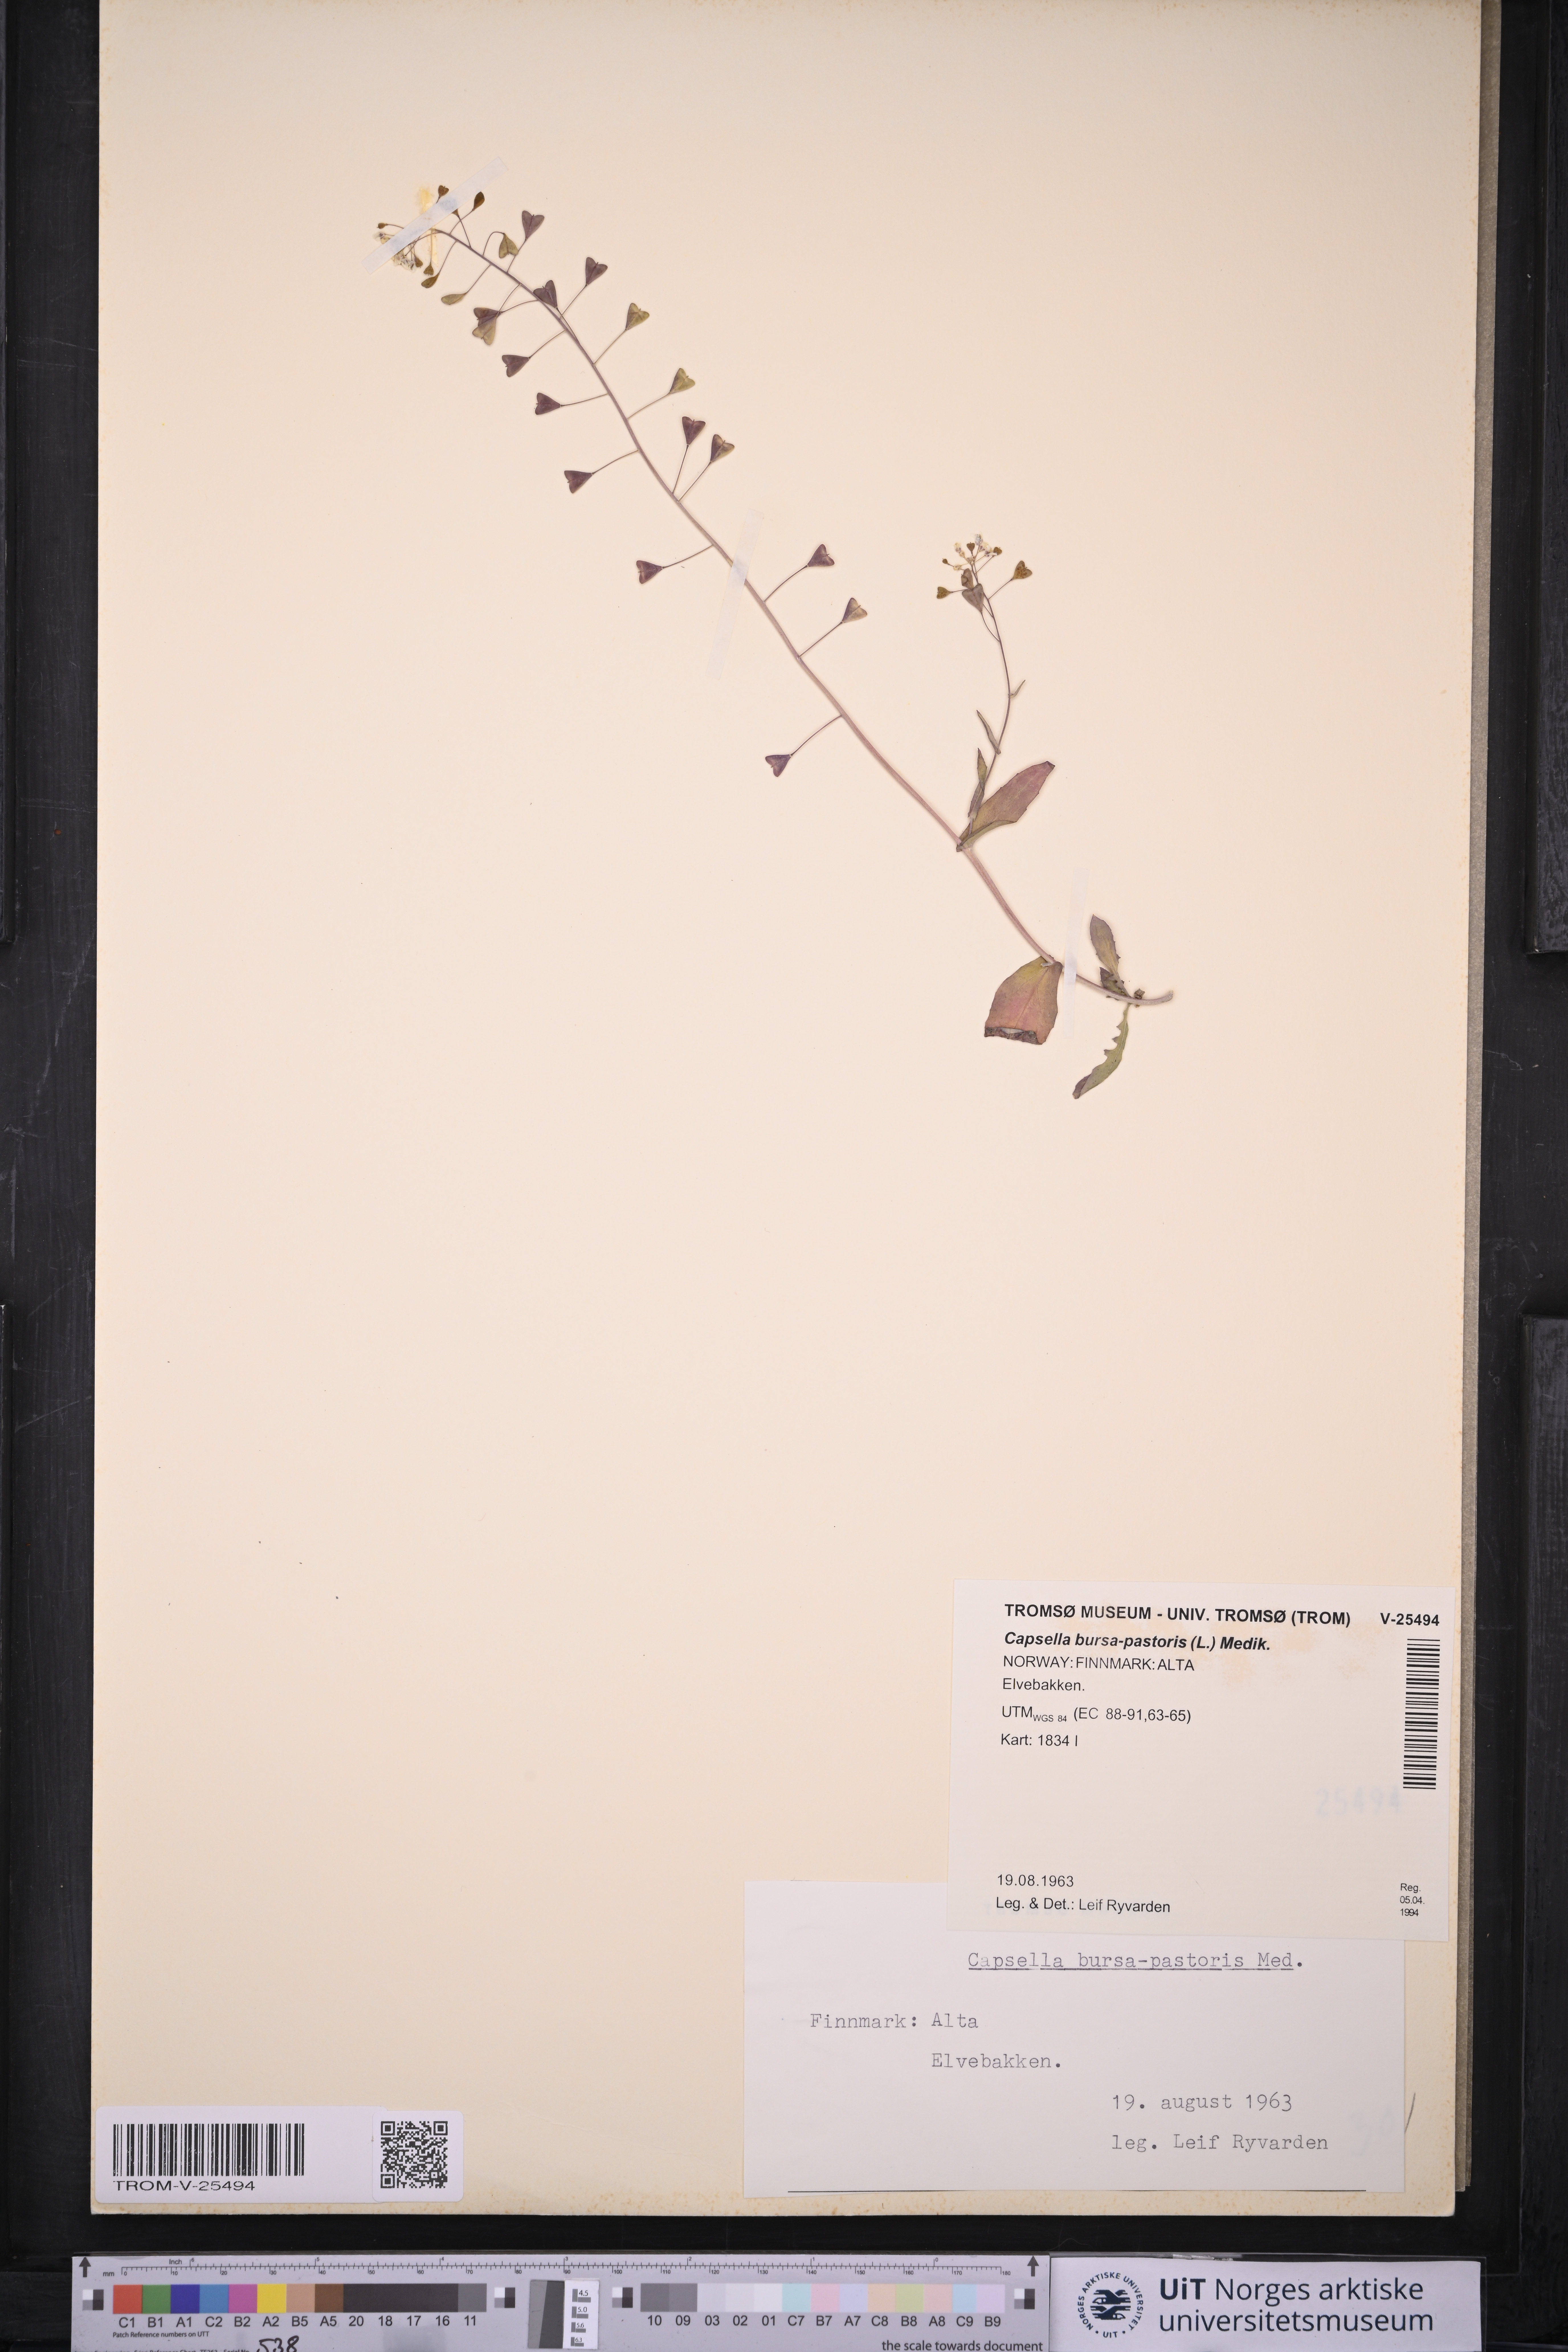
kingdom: Plantae
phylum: Tracheophyta
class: Magnoliopsida
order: Brassicales
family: Brassicaceae
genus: Capsella
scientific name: Capsella bursa-pastoris
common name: Shepherd's purse
